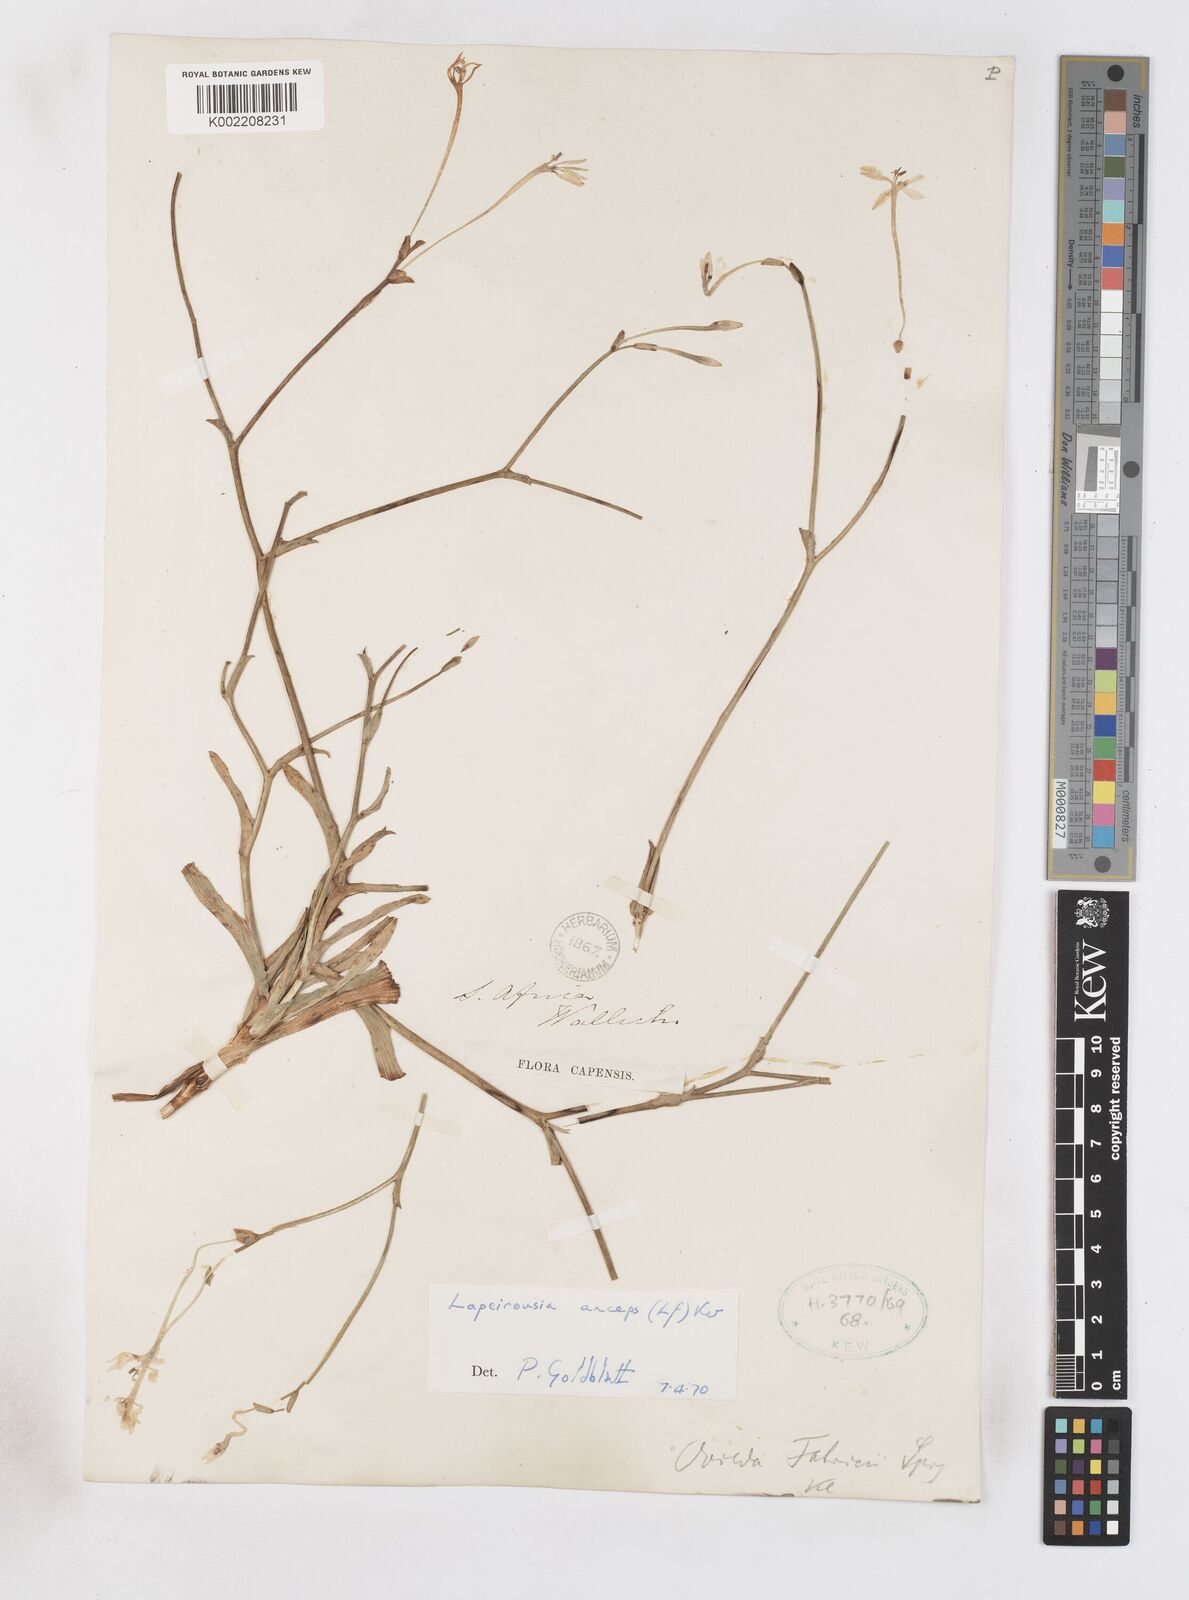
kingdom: Plantae
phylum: Tracheophyta
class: Liliopsida
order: Asparagales
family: Iridaceae
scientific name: Iridaceae
